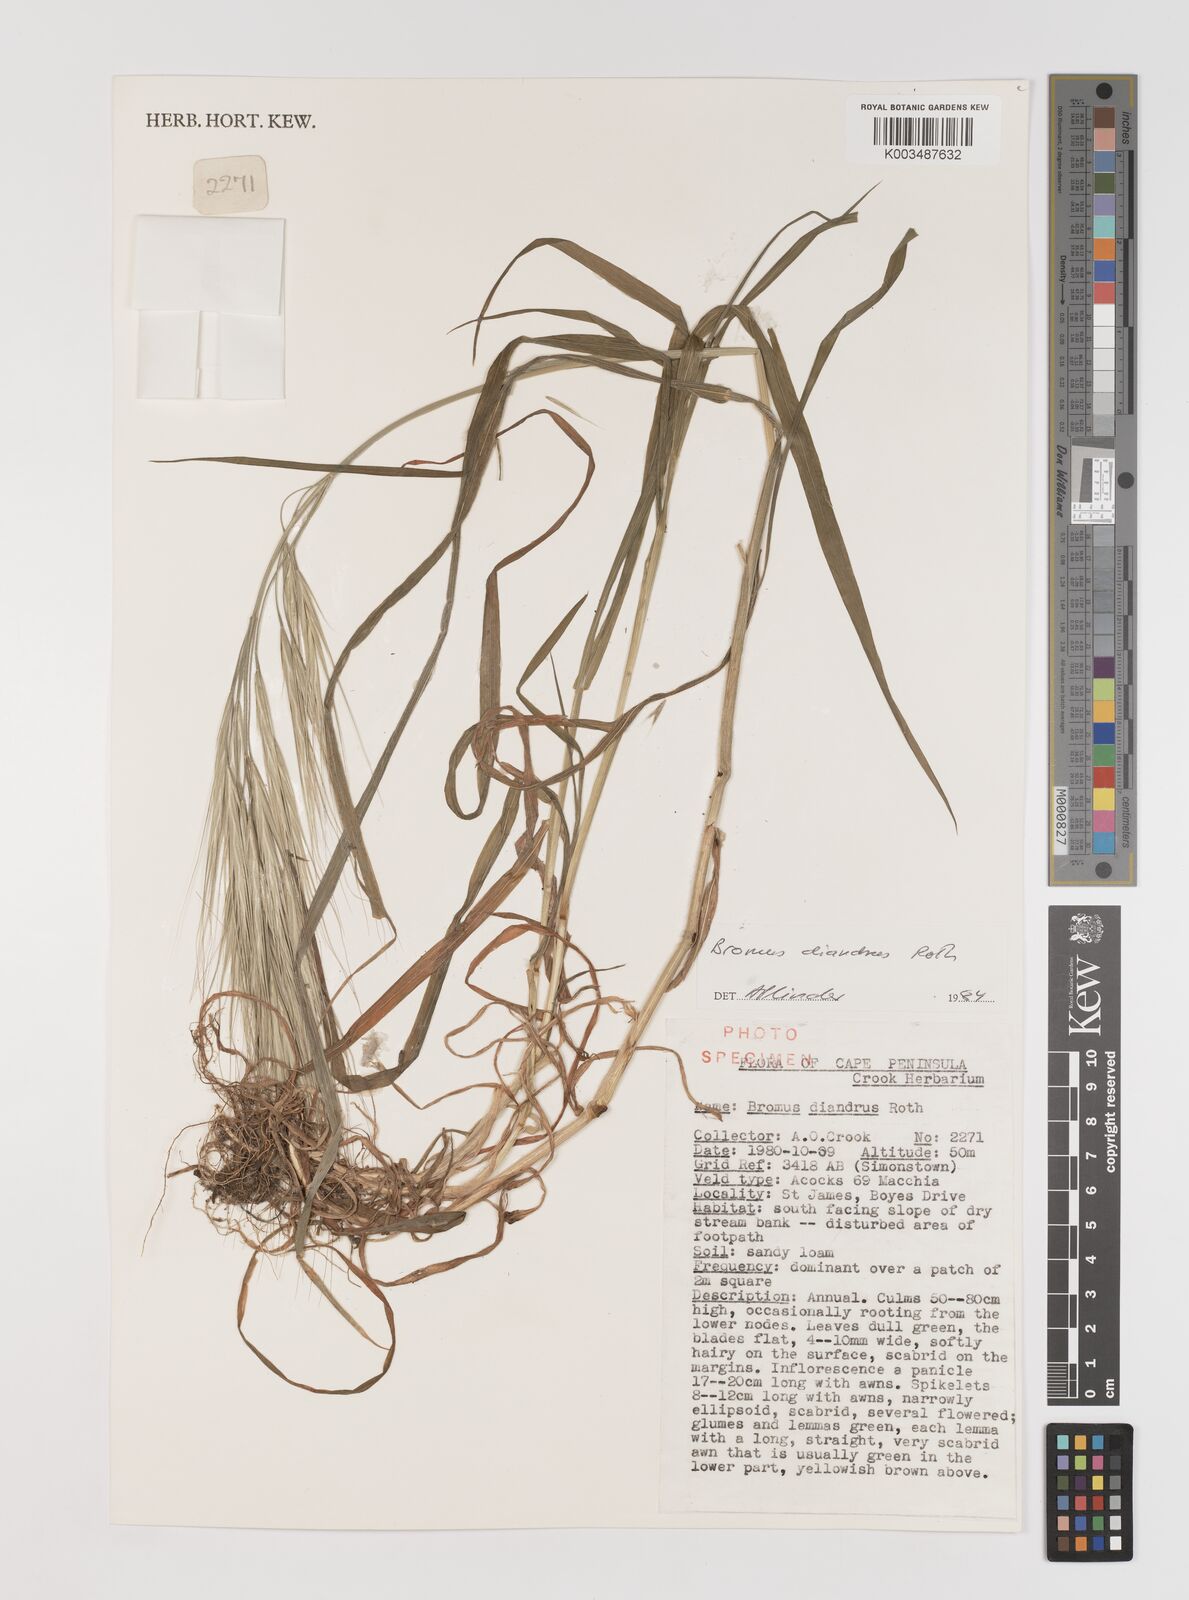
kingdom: Plantae
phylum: Tracheophyta
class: Liliopsida
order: Poales
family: Poaceae
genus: Bromus
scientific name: Bromus diandrus
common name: Ripgut brome
